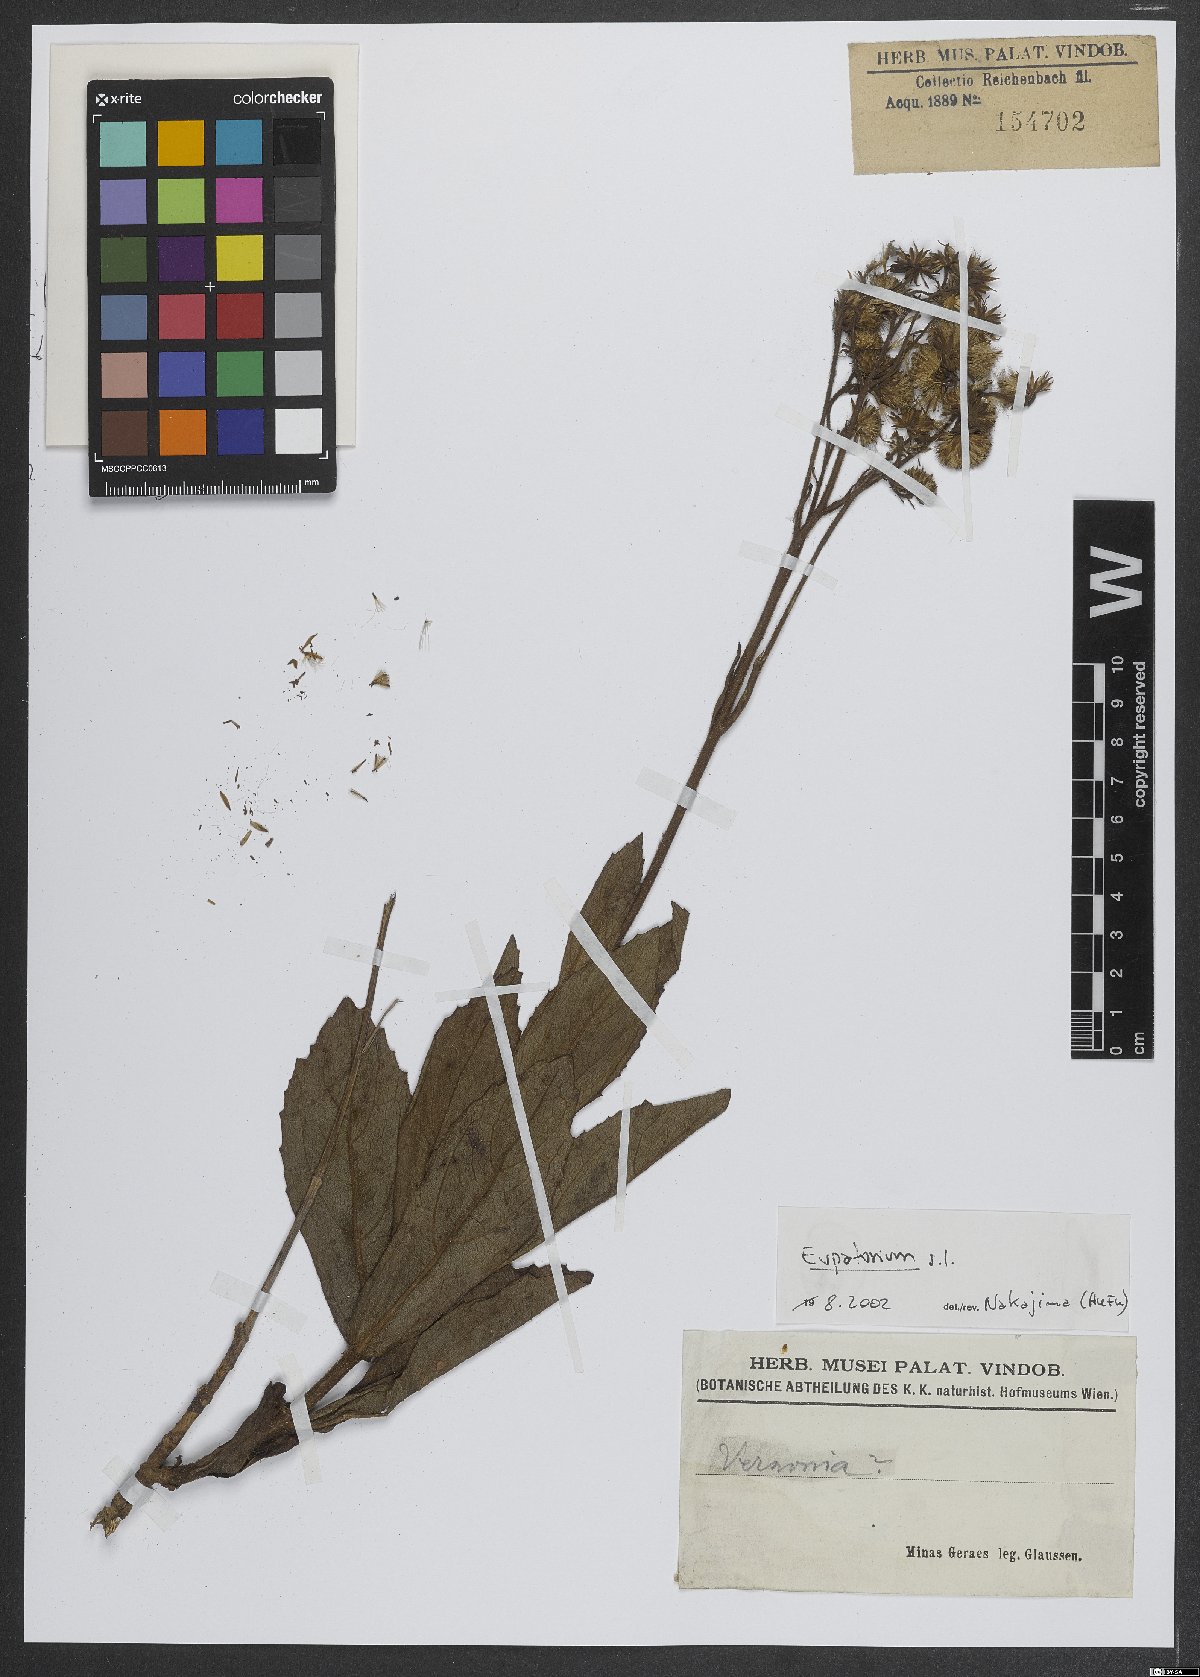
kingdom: Plantae
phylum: Tracheophyta
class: Magnoliopsida
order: Asterales
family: Asteraceae
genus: Eupatorium
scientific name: Eupatorium
